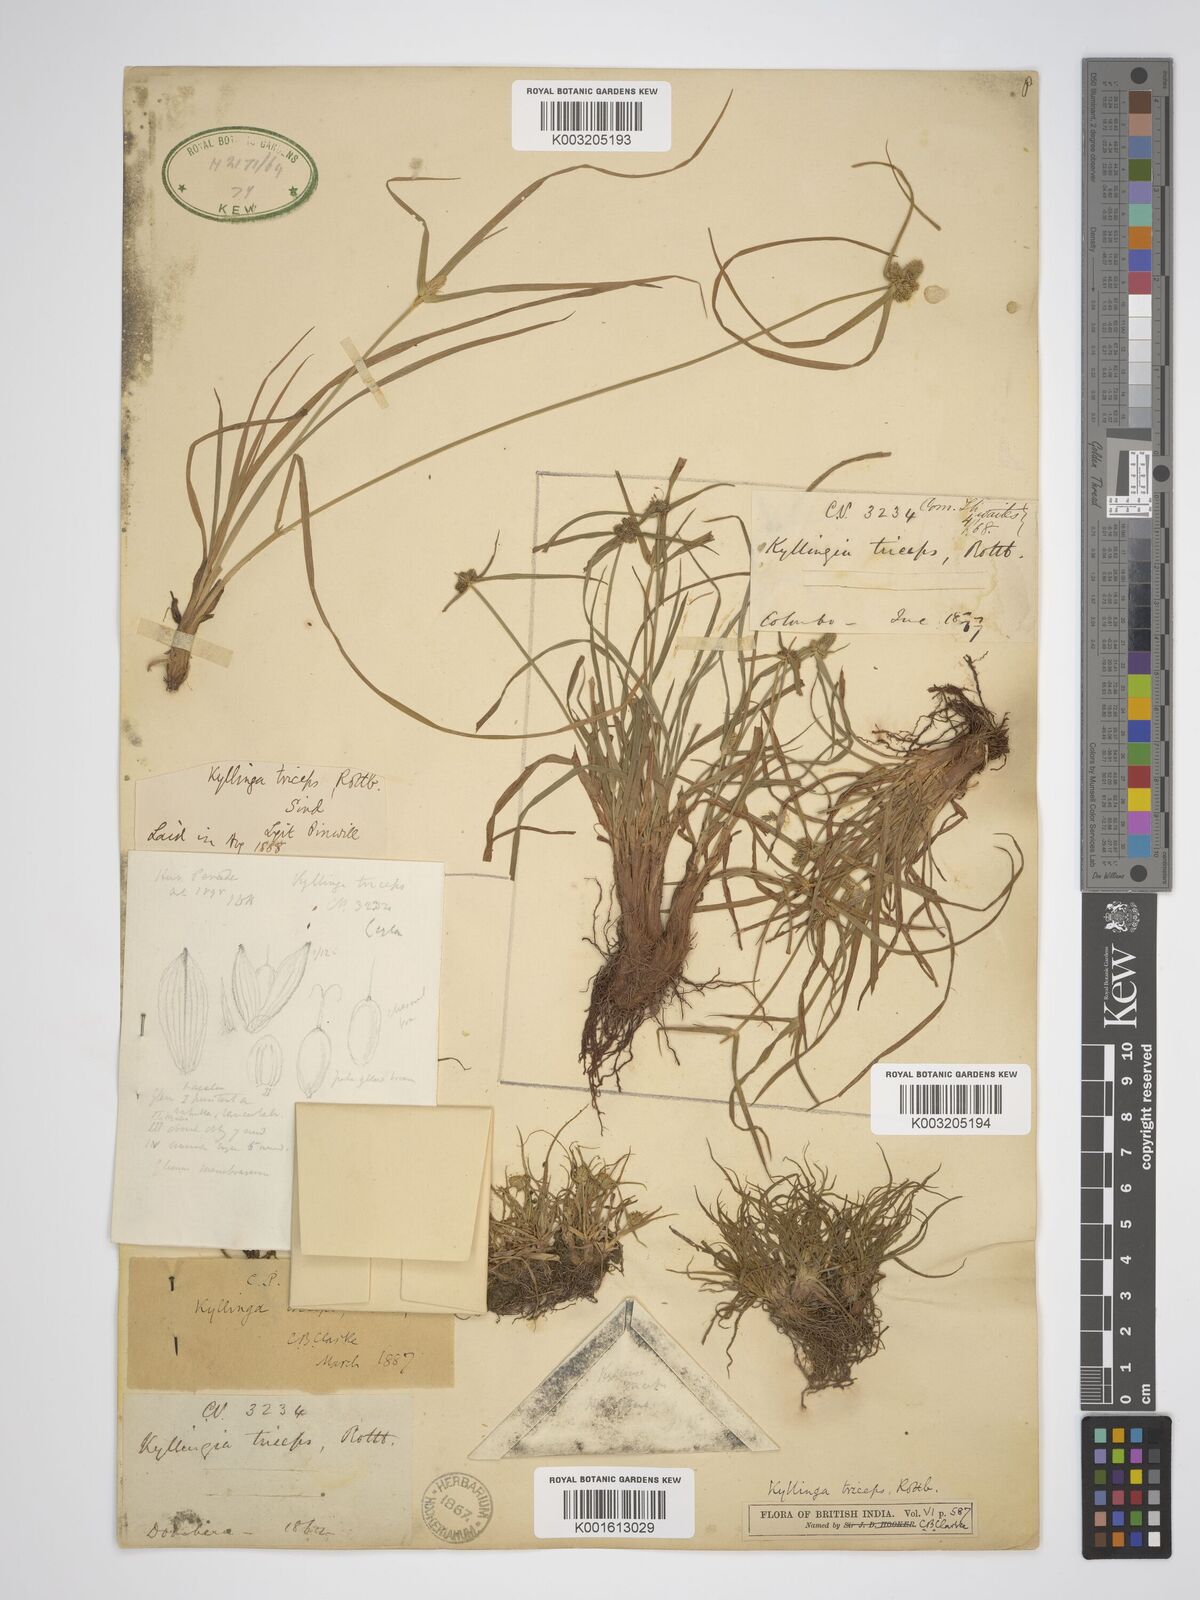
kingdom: Plantae
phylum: Tracheophyta
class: Liliopsida
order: Poales
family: Cyperaceae
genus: Cyperus
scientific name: Cyperus brevifolius
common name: Globe kyllinga
